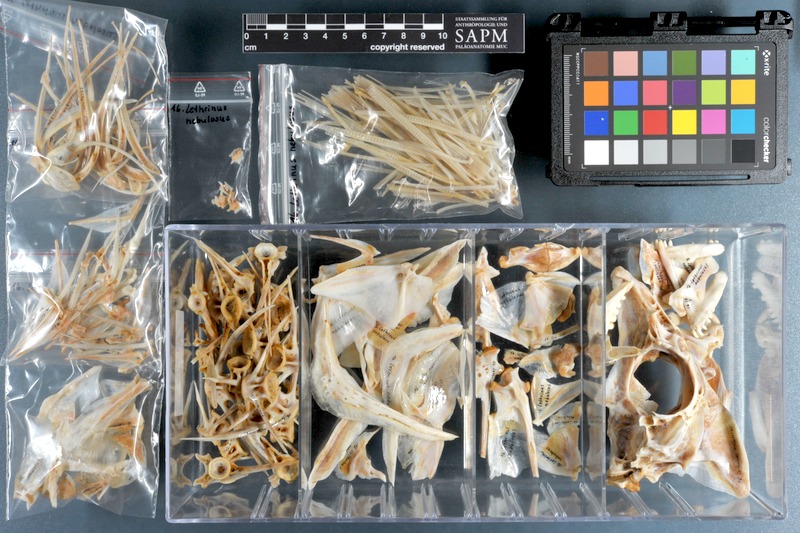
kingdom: Animalia
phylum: Chordata
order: Perciformes
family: Lethrinidae
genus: Lethrinus
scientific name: Lethrinus nebulosus
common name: Spangled emperor
